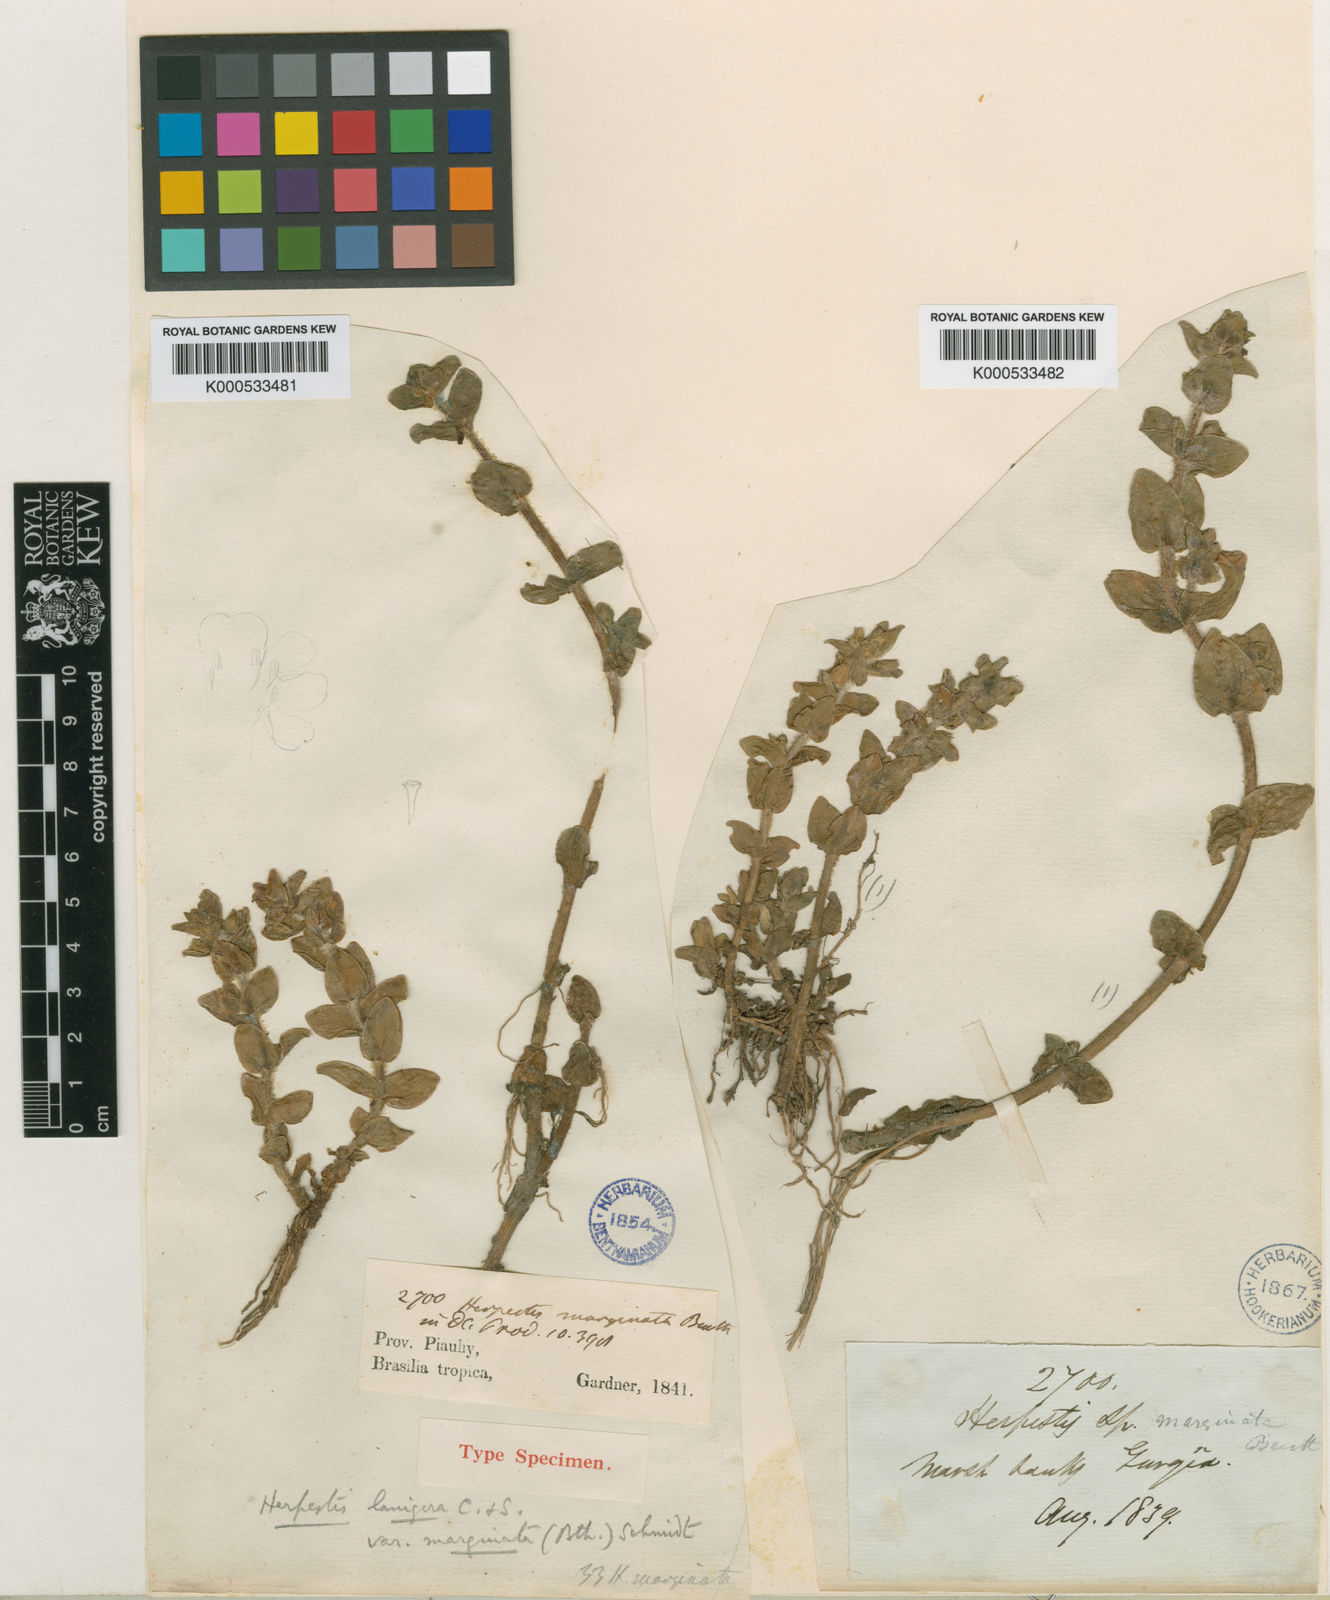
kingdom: Plantae
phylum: Tracheophyta
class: Magnoliopsida
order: Lamiales
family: Plantaginaceae
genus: Bacopa
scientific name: Bacopa lanigera
